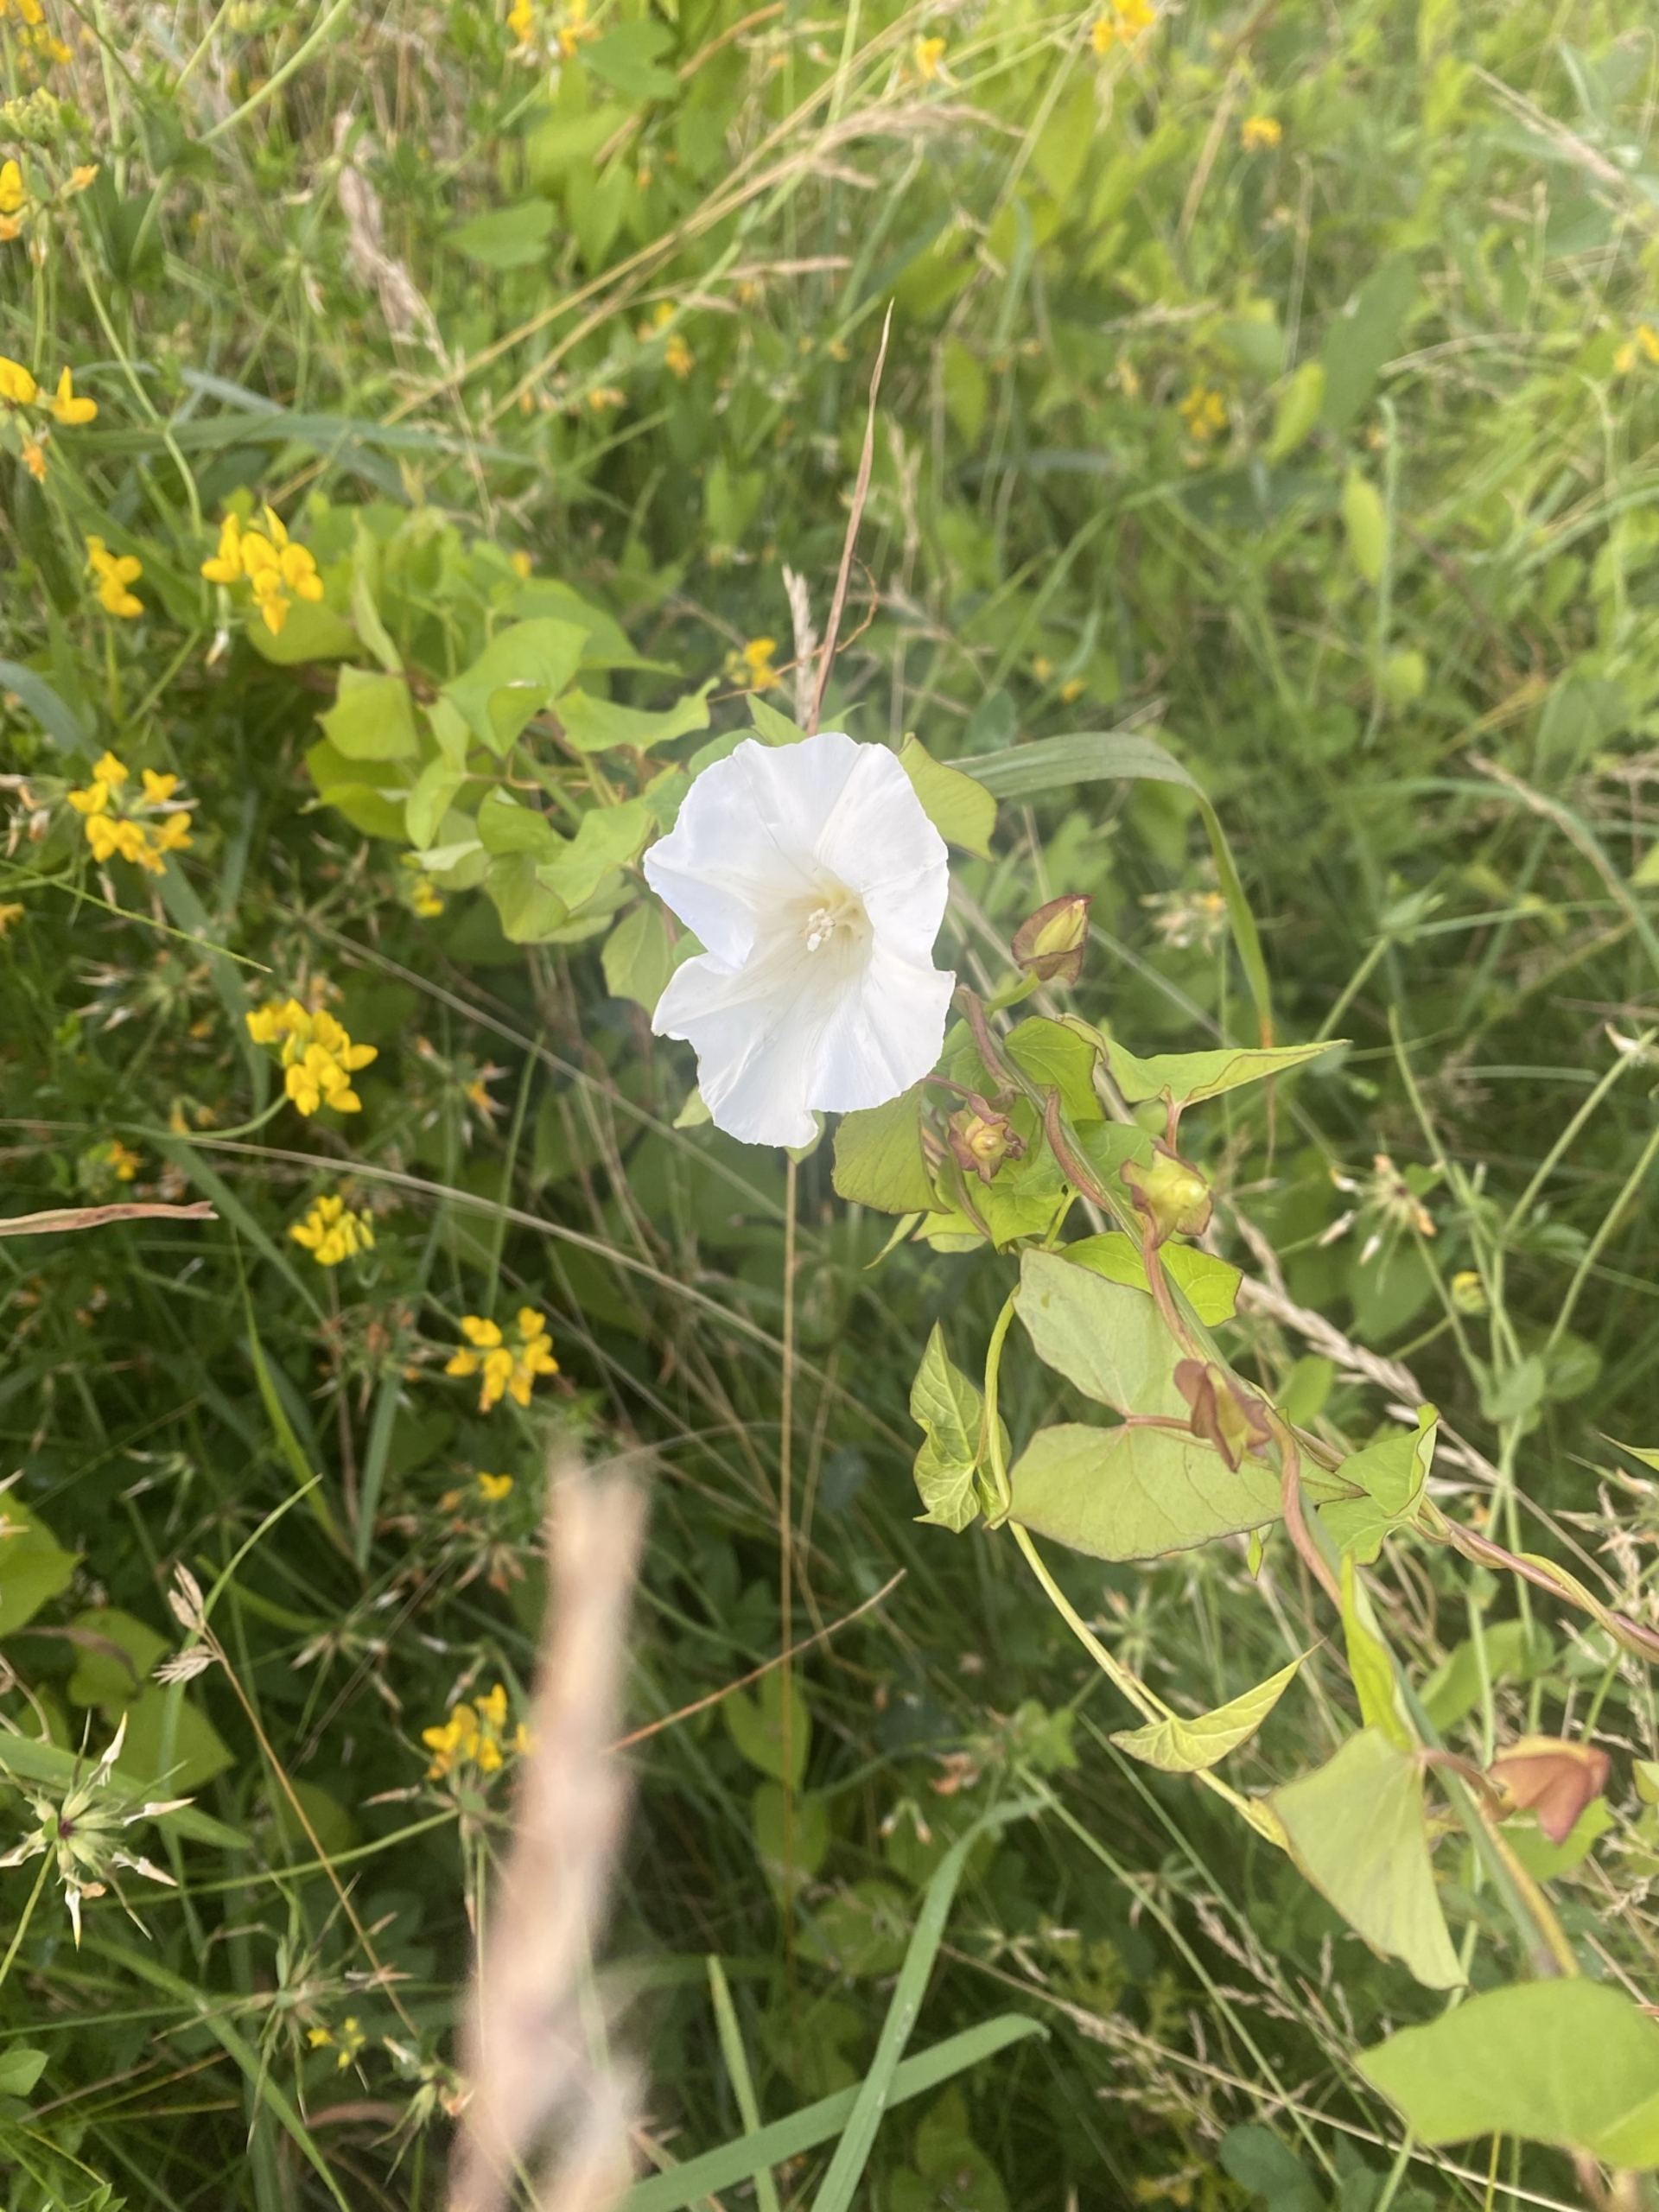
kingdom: Plantae
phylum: Tracheophyta
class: Magnoliopsida
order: Solanales
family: Convolvulaceae
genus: Calystegia
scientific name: Calystegia sepium
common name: Gærde-snerle
